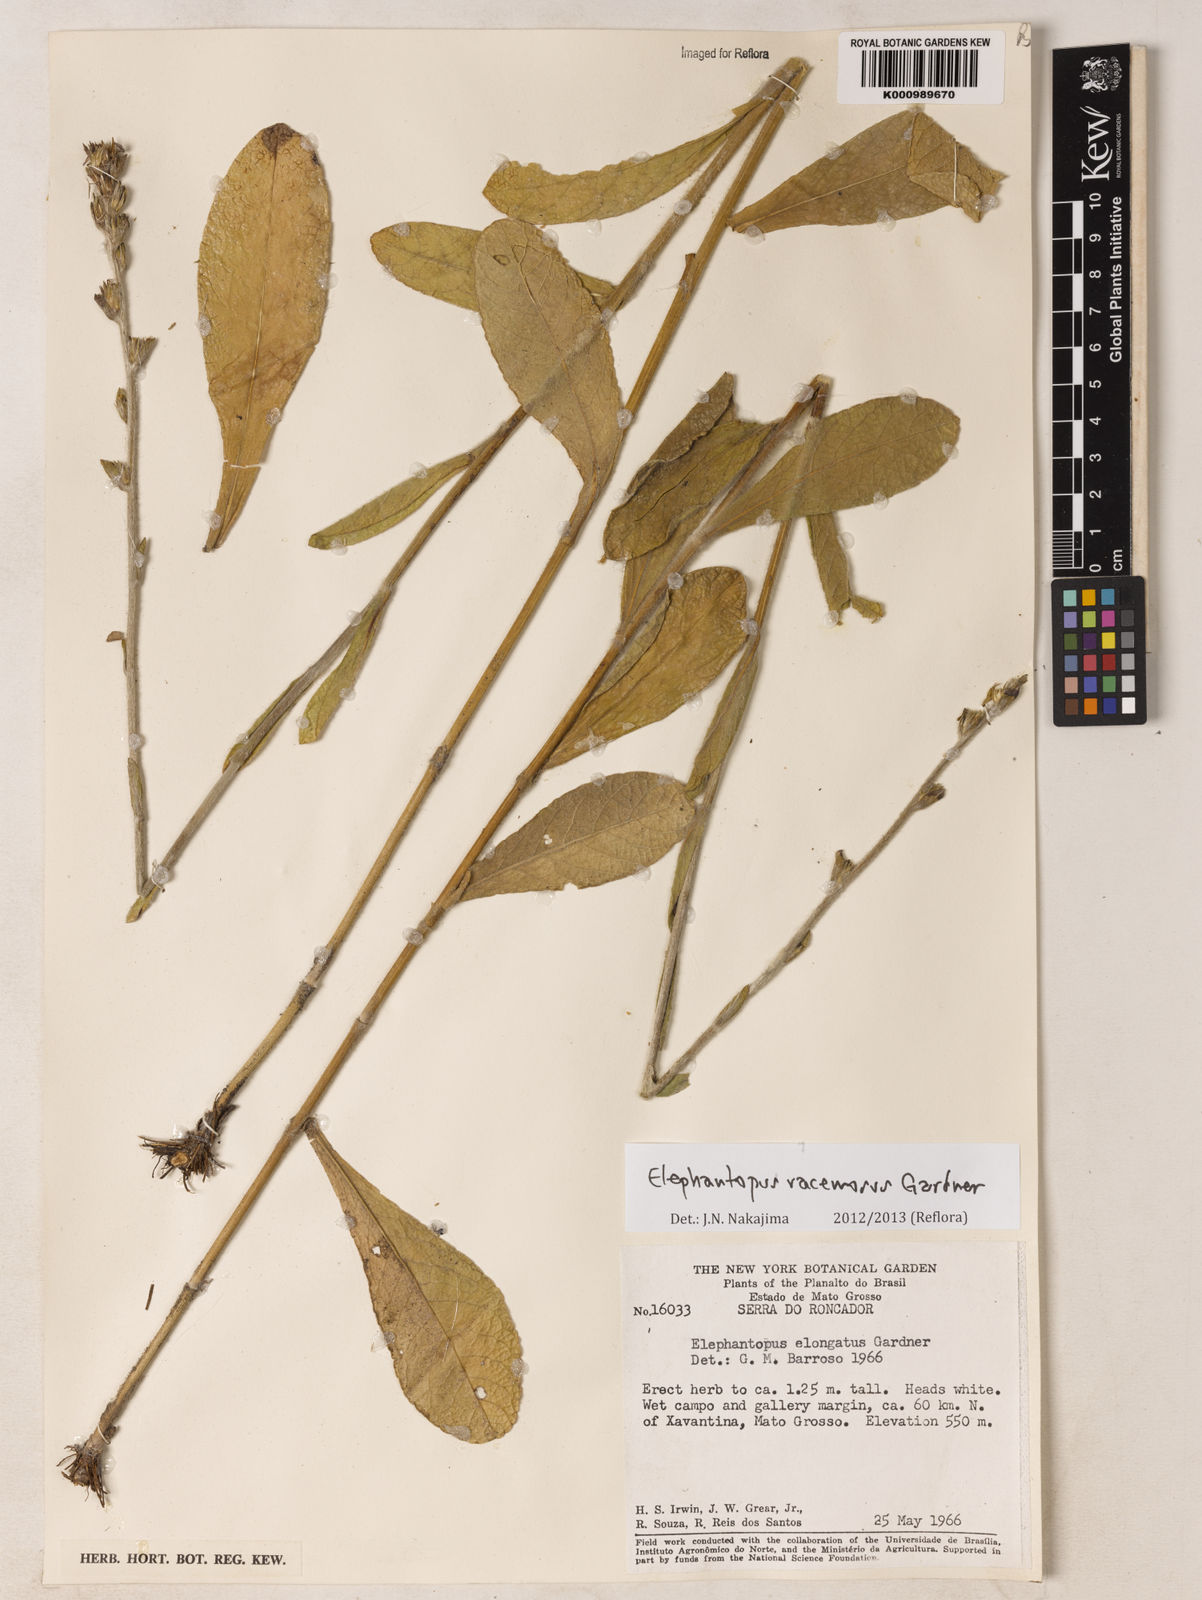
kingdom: Plantae
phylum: Tracheophyta
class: Magnoliopsida
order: Asterales
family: Asteraceae
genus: Elephantopus
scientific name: Elephantopus racemosus
